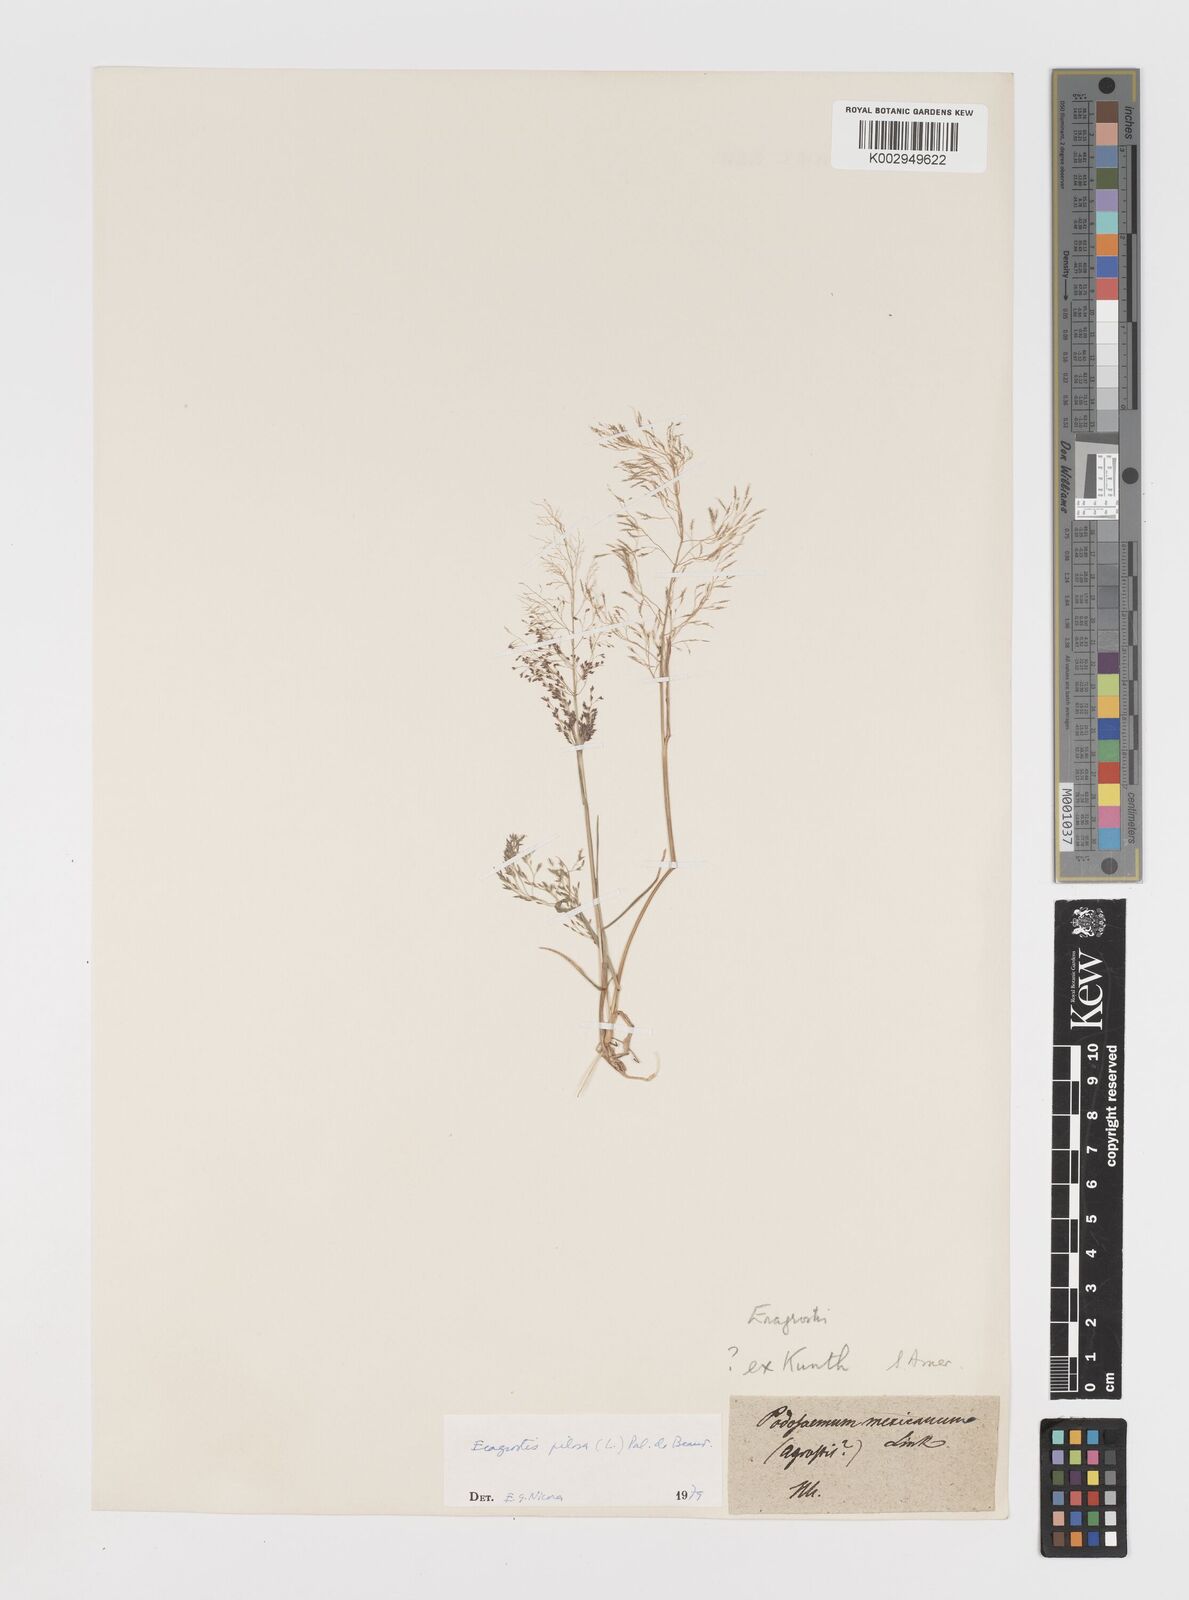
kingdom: Plantae
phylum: Tracheophyta
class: Liliopsida
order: Poales
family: Poaceae
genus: Eragrostis
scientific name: Eragrostis pilosa
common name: Indian lovegrass
